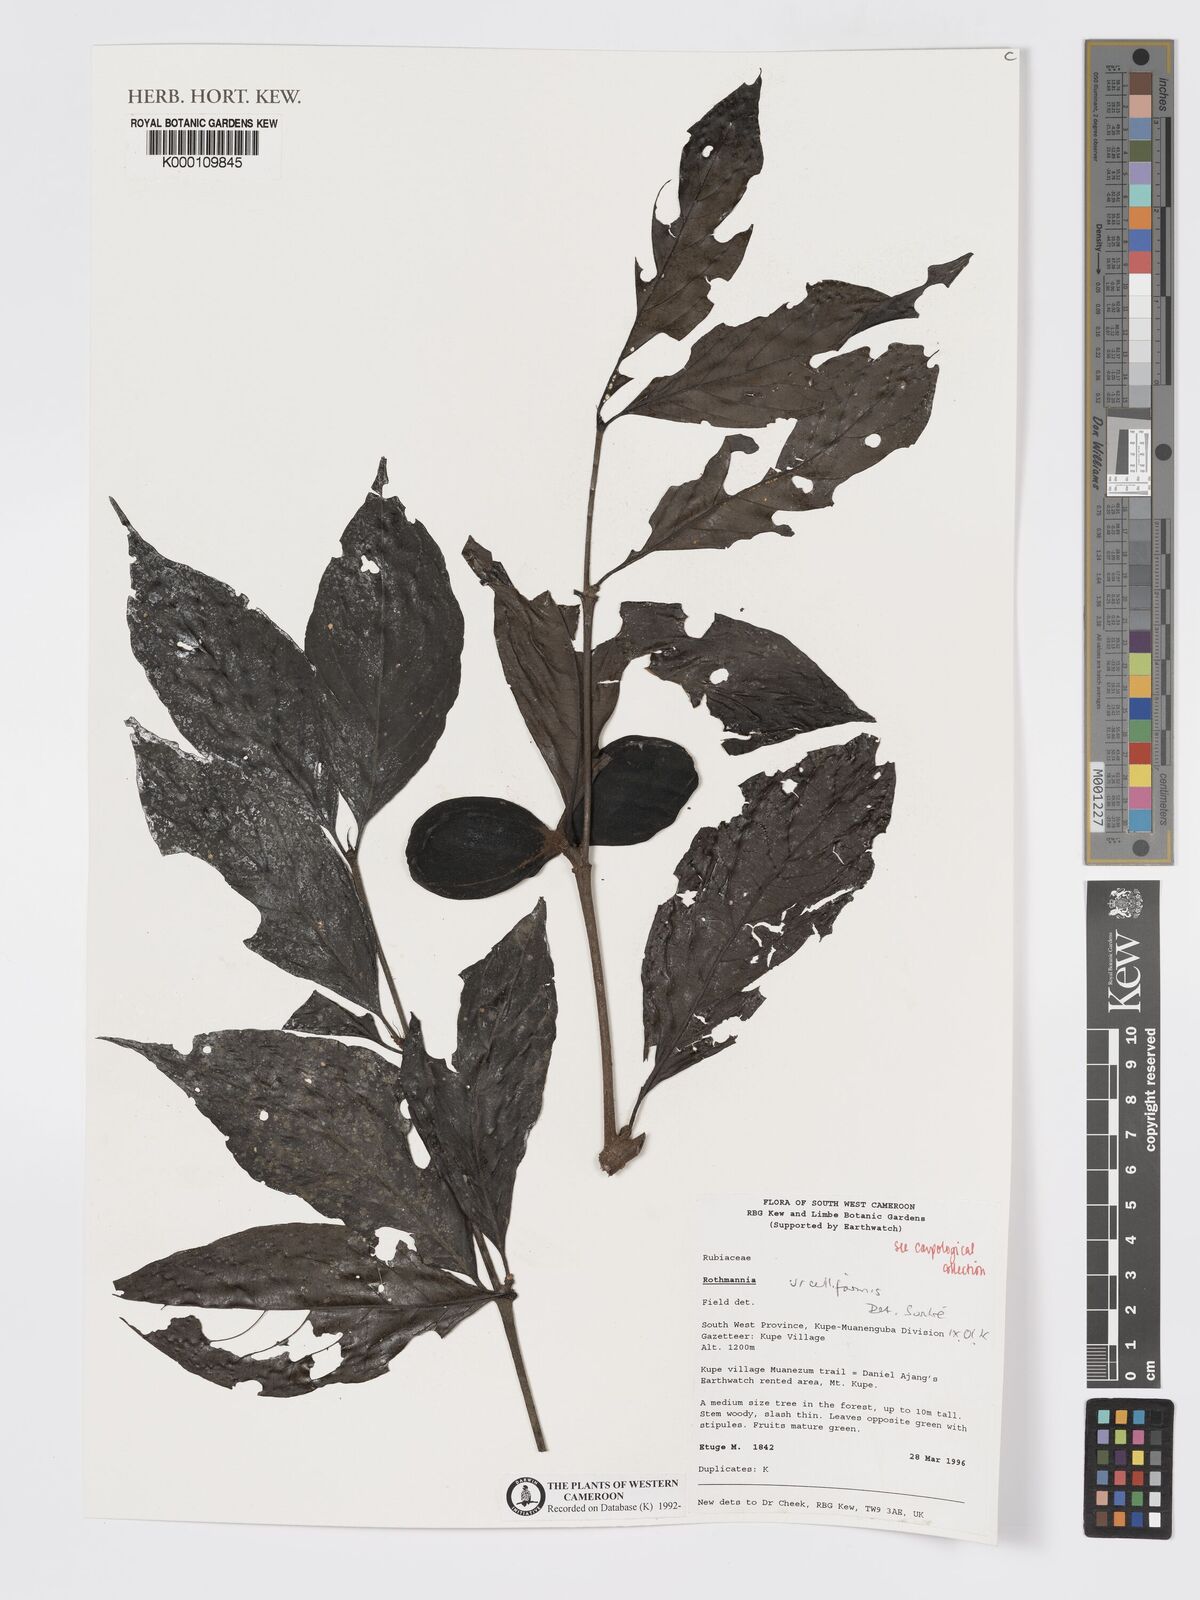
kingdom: Plantae
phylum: Tracheophyta
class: Magnoliopsida
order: Gentianales
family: Rubiaceae
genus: Rothmannia
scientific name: Rothmannia urcelliformis
